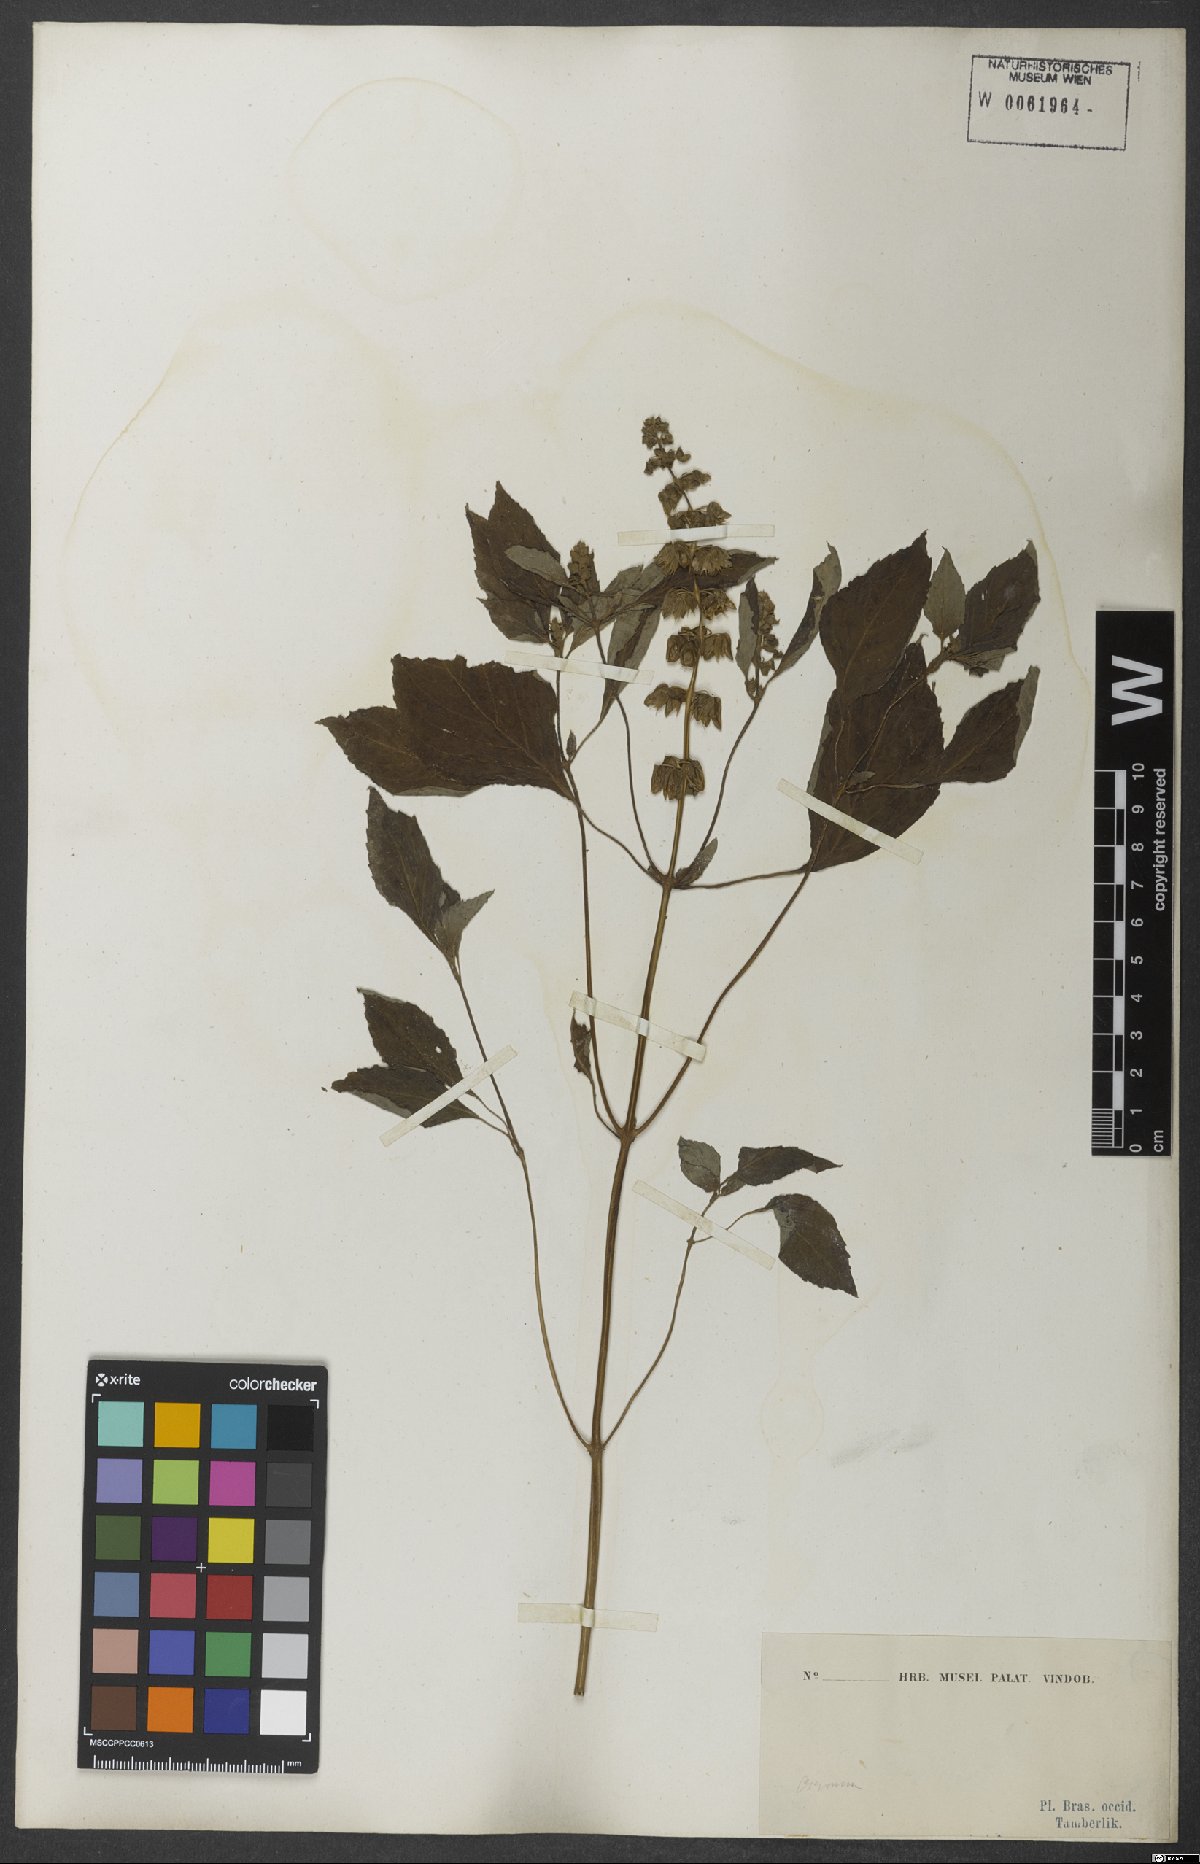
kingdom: Plantae
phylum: Tracheophyta
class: Magnoliopsida
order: Lamiales
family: Lamiaceae
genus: Ocimum
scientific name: Ocimum campechianum
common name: Mosquito basil
